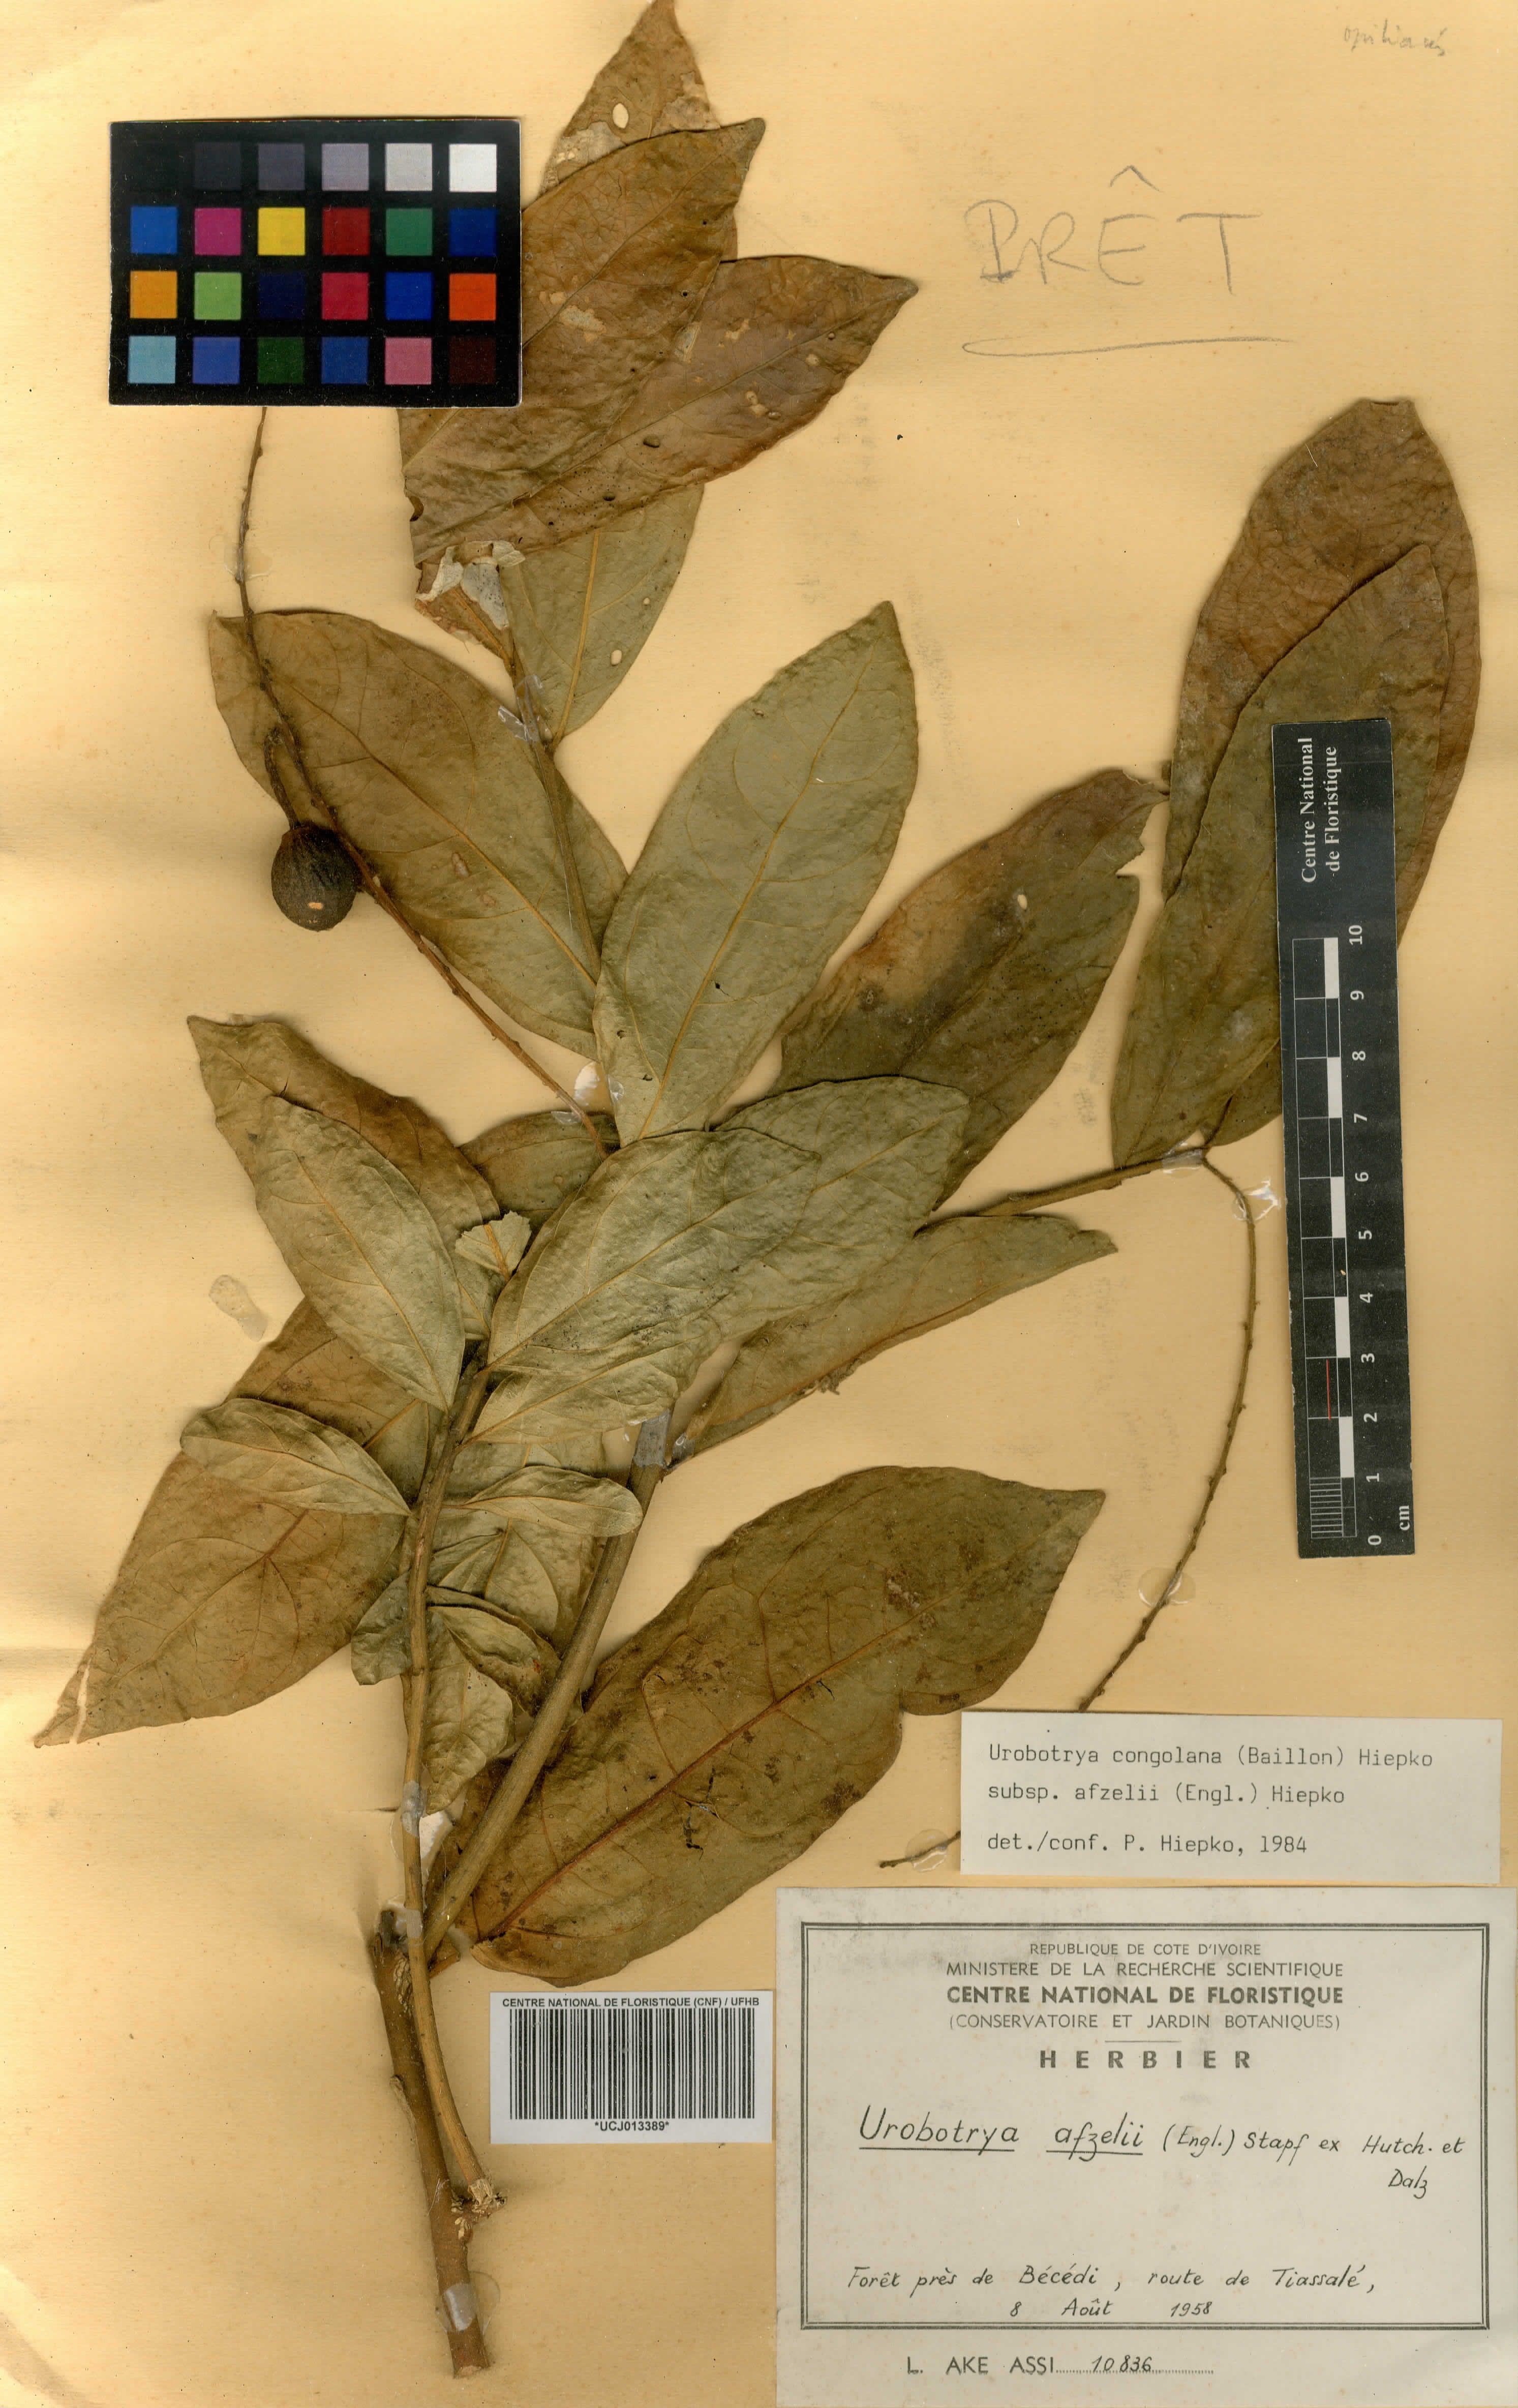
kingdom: Plantae
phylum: Tracheophyta
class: Magnoliopsida
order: Santalales
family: Opiliaceae
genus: Urobotrya
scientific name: Urobotrya congolana
